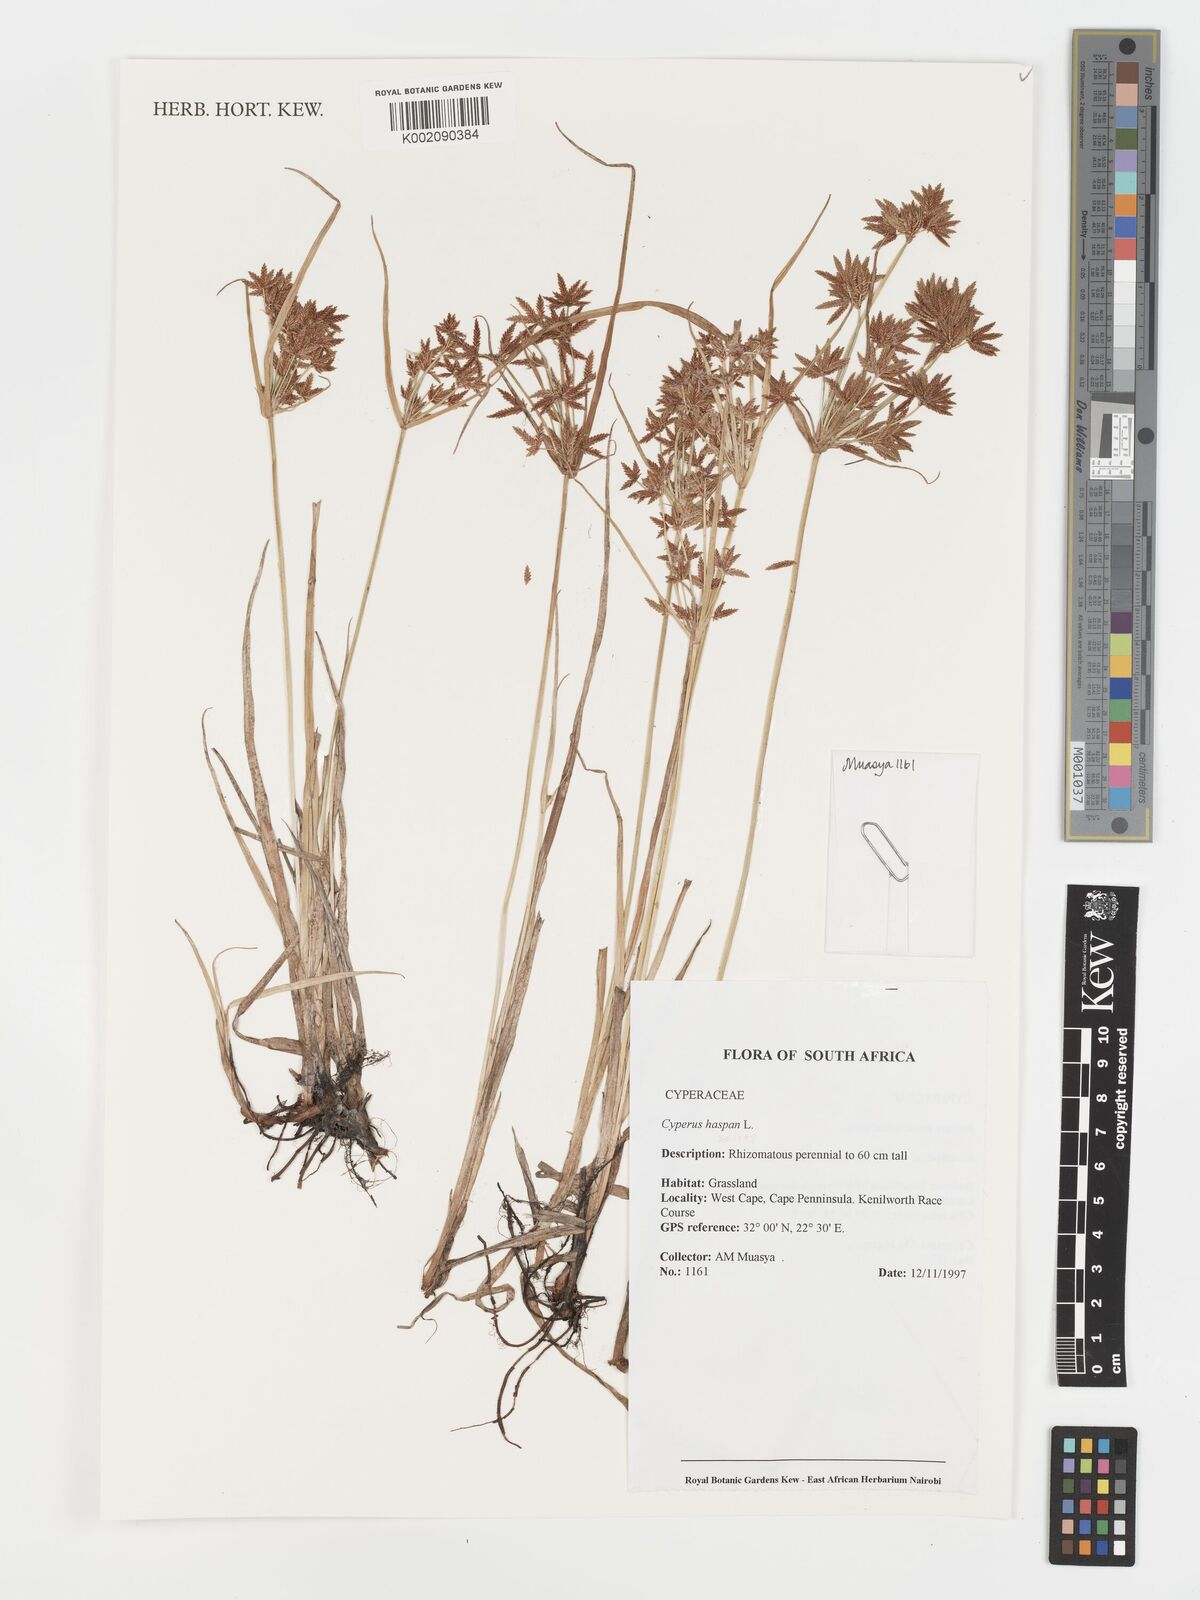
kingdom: Plantae
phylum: Tracheophyta
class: Liliopsida
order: Poales
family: Cyperaceae
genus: Cyperus
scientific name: Cyperus haspan
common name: Haspan flatsedge
